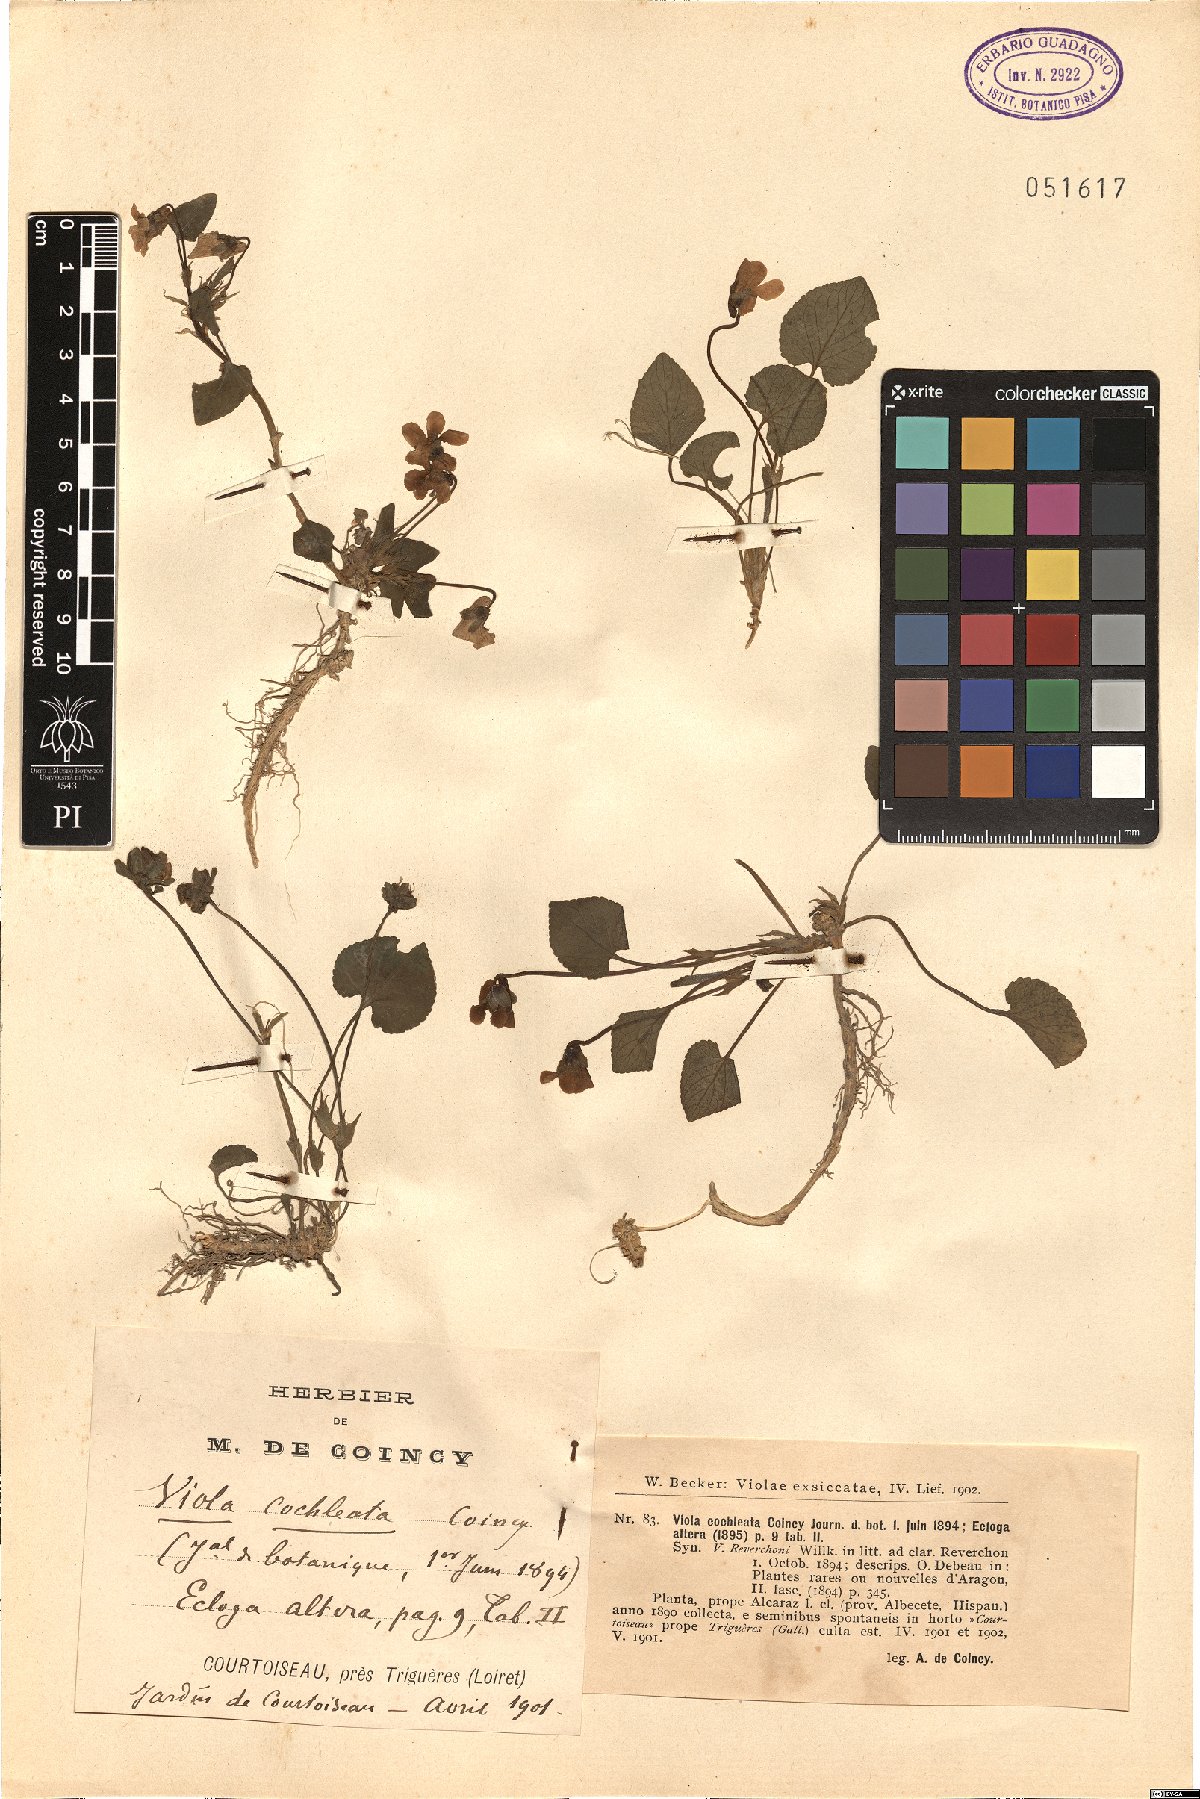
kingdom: Plantae
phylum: Tracheophyta
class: Magnoliopsida
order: Malpighiales
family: Violaceae
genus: Viola
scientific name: Viola cochleata
